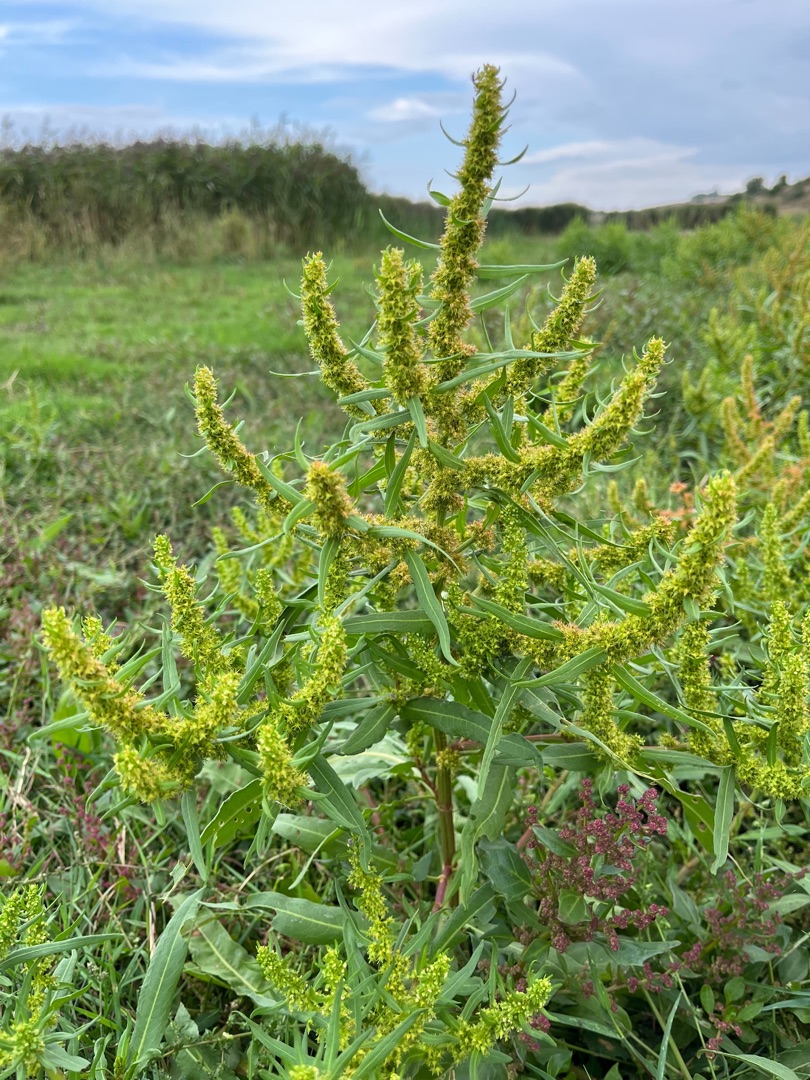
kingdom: Plantae
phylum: Tracheophyta
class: Magnoliopsida
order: Caryophyllales
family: Polygonaceae
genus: Rumex
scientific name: Rumex maritimus
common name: Strand-skræppe
